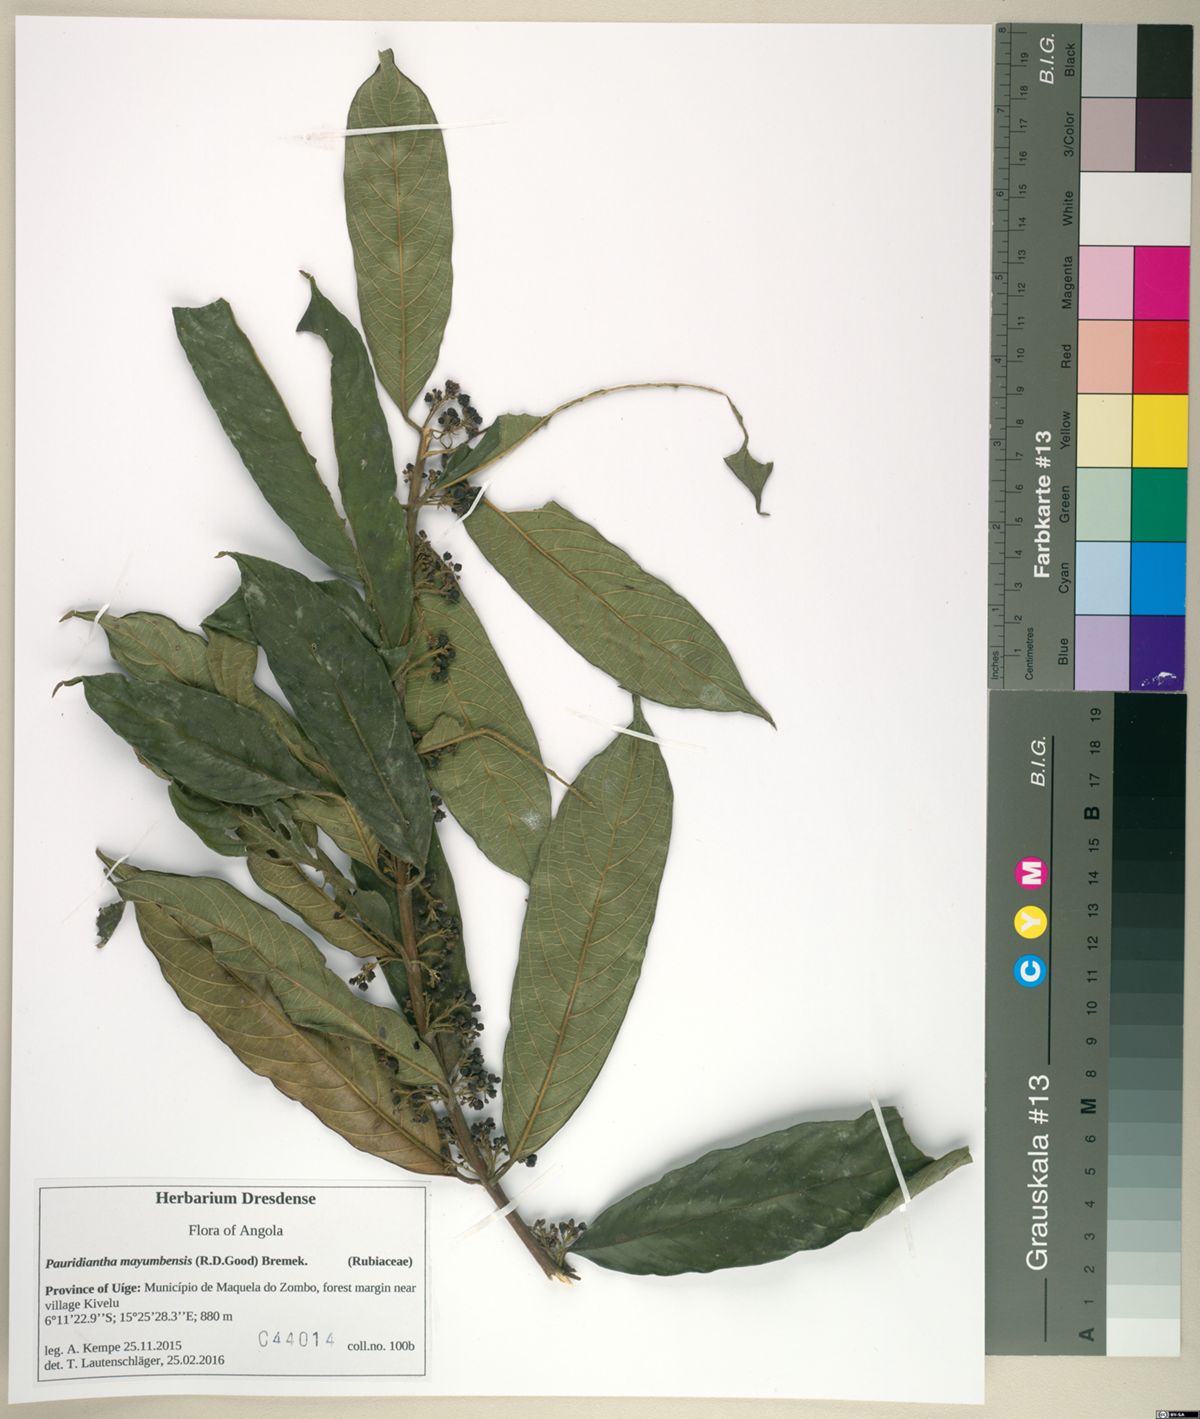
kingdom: Plantae
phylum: Tracheophyta
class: Magnoliopsida
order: Gentianales
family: Rubiaceae
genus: Pauridiantha
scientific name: Pauridiantha mayumbensis
